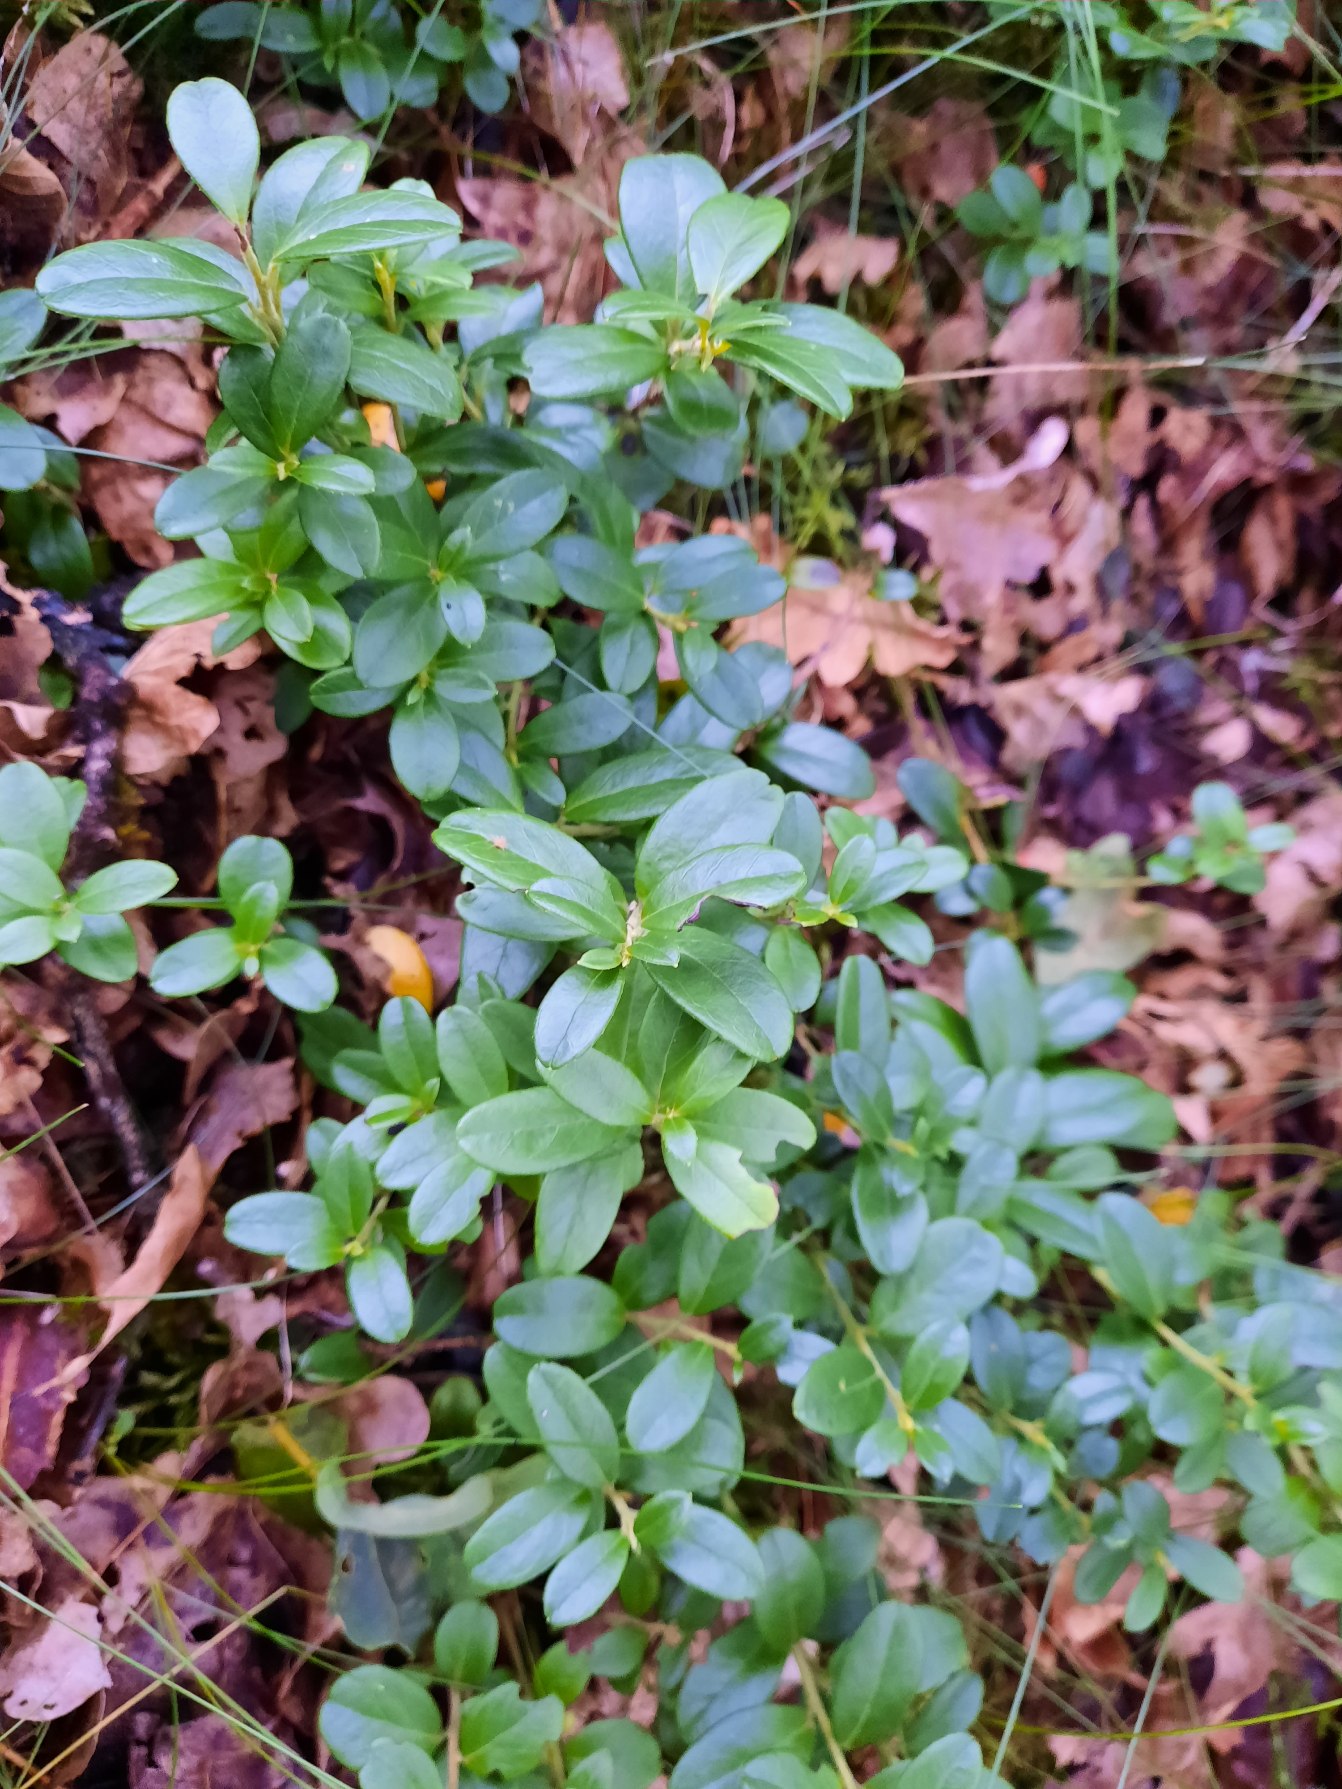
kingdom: Plantae
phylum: Tracheophyta
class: Magnoliopsida
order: Ericales
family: Ericaceae
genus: Vaccinium
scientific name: Vaccinium vitis-idaea
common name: Tyttebær
